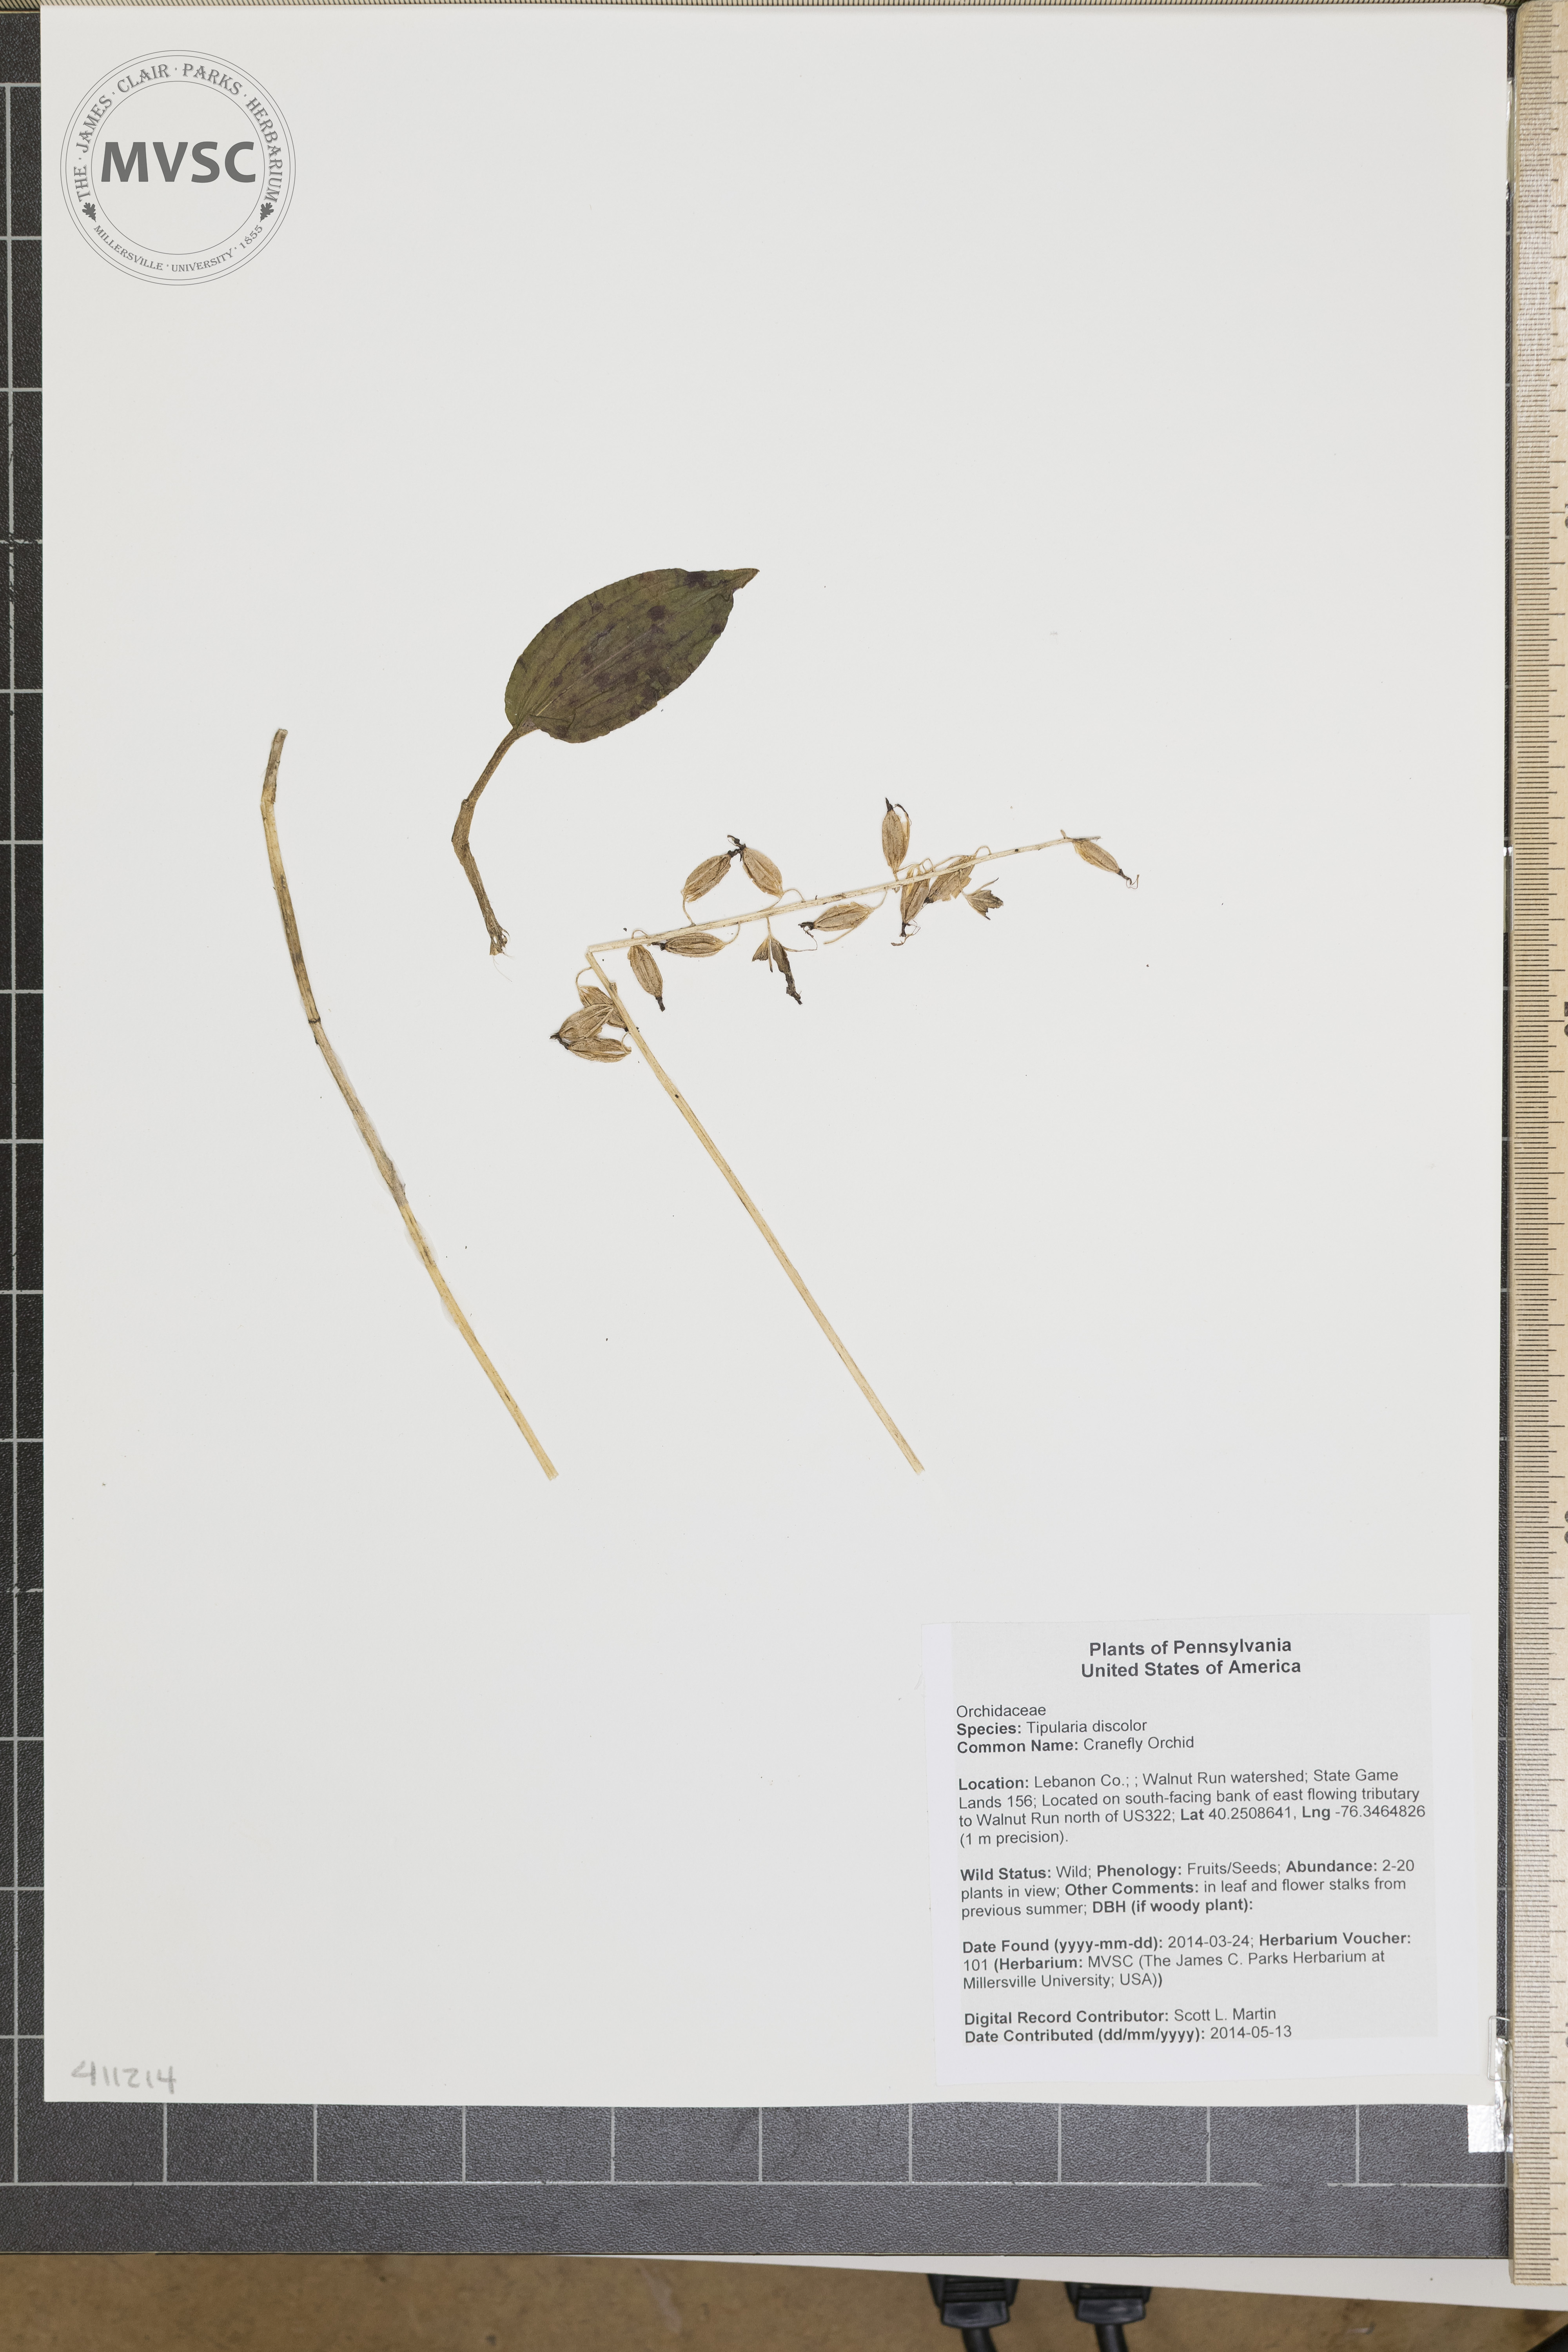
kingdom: Plantae
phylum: Tracheophyta
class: Liliopsida
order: Asparagales
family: Orchidaceae
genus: Tipularia
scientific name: Tipularia discolor
